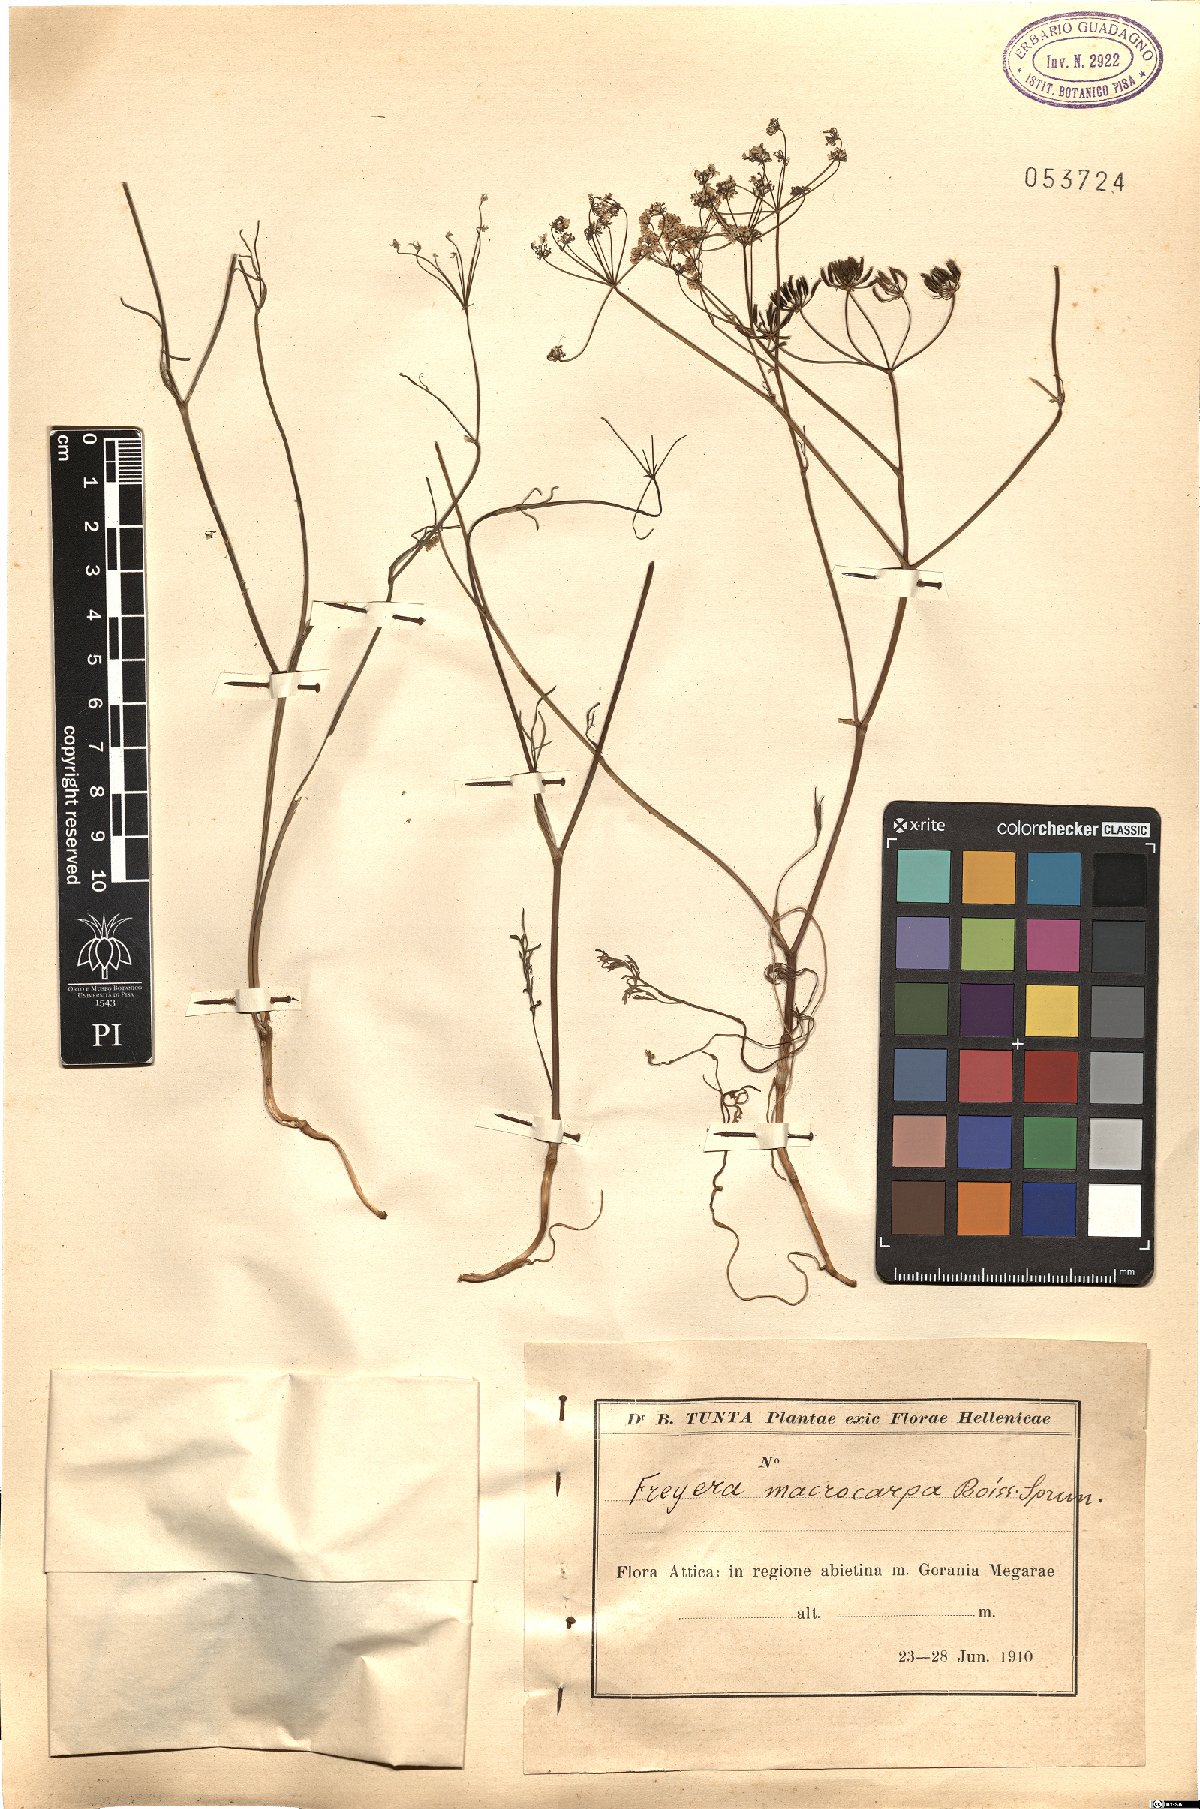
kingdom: Plantae
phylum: Tracheophyta
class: Magnoliopsida
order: Apiales
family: Apiaceae
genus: Geocaryum
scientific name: Geocaryum macrocarpum
